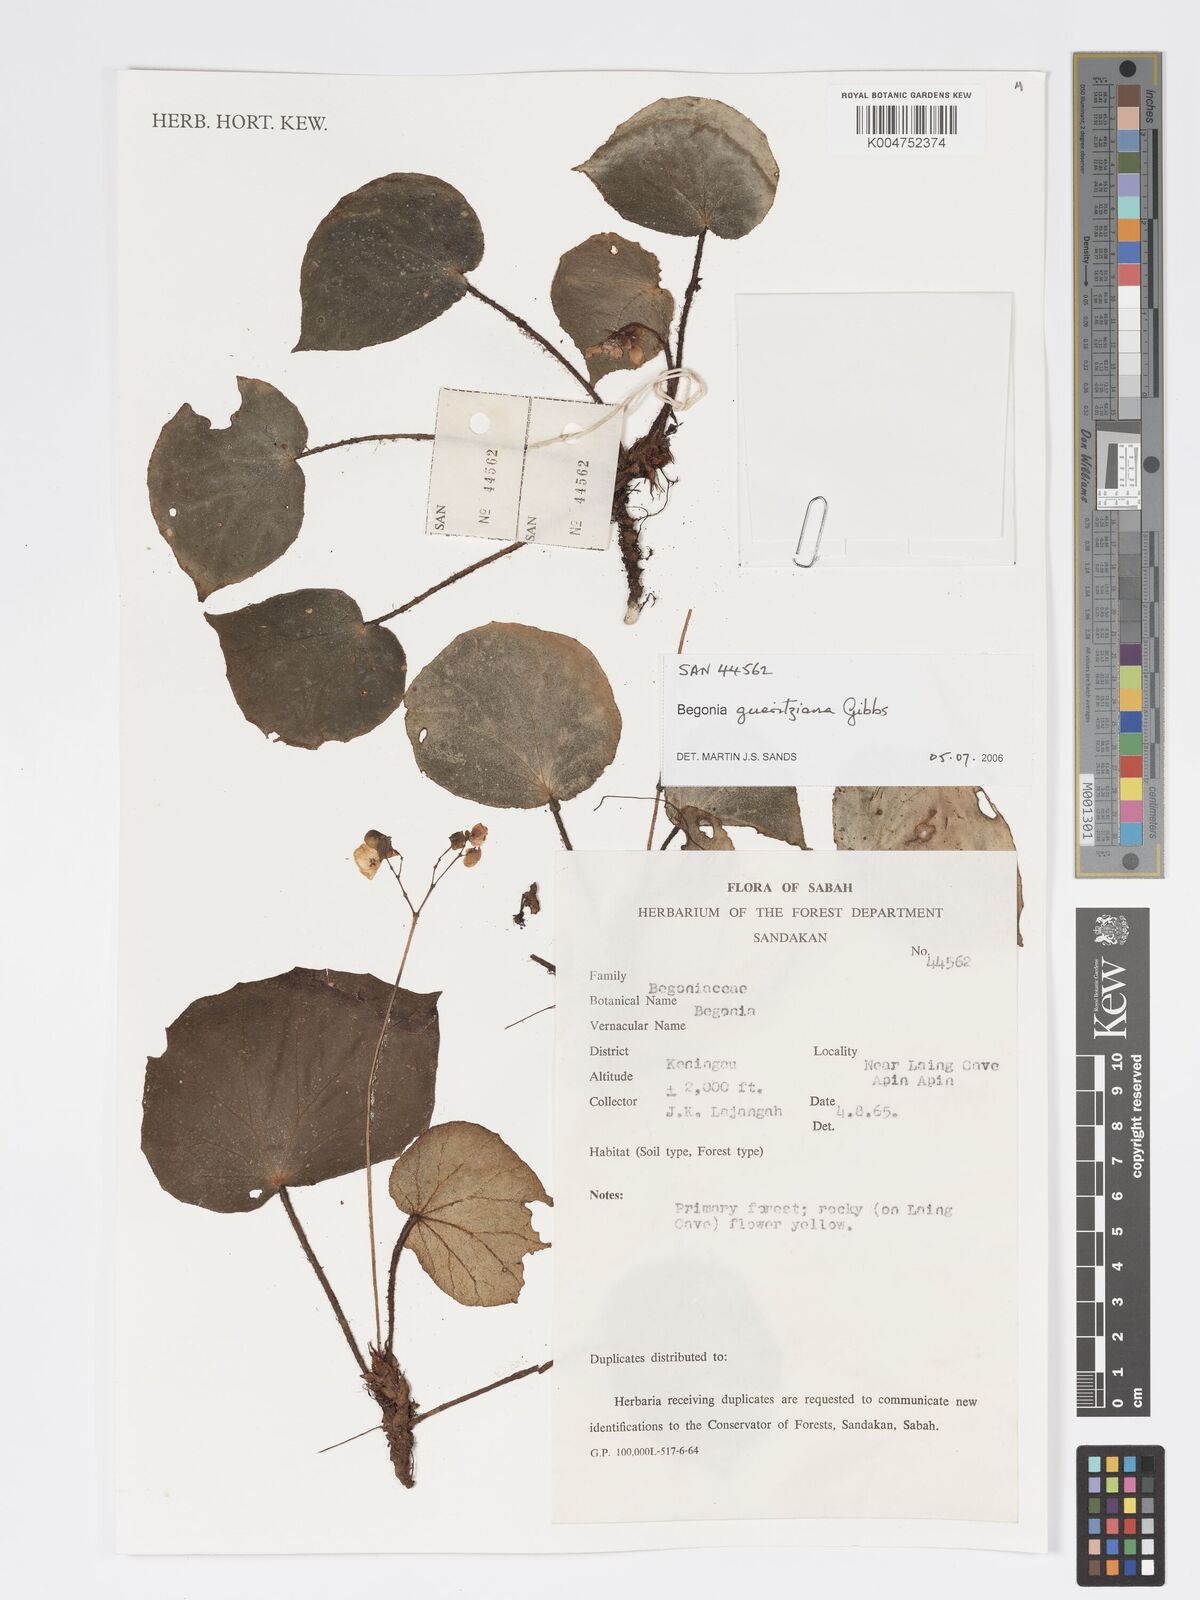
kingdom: Plantae
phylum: Tracheophyta
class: Magnoliopsida
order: Cucurbitales
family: Begoniaceae
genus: Begonia
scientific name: Begonia gueritziana
